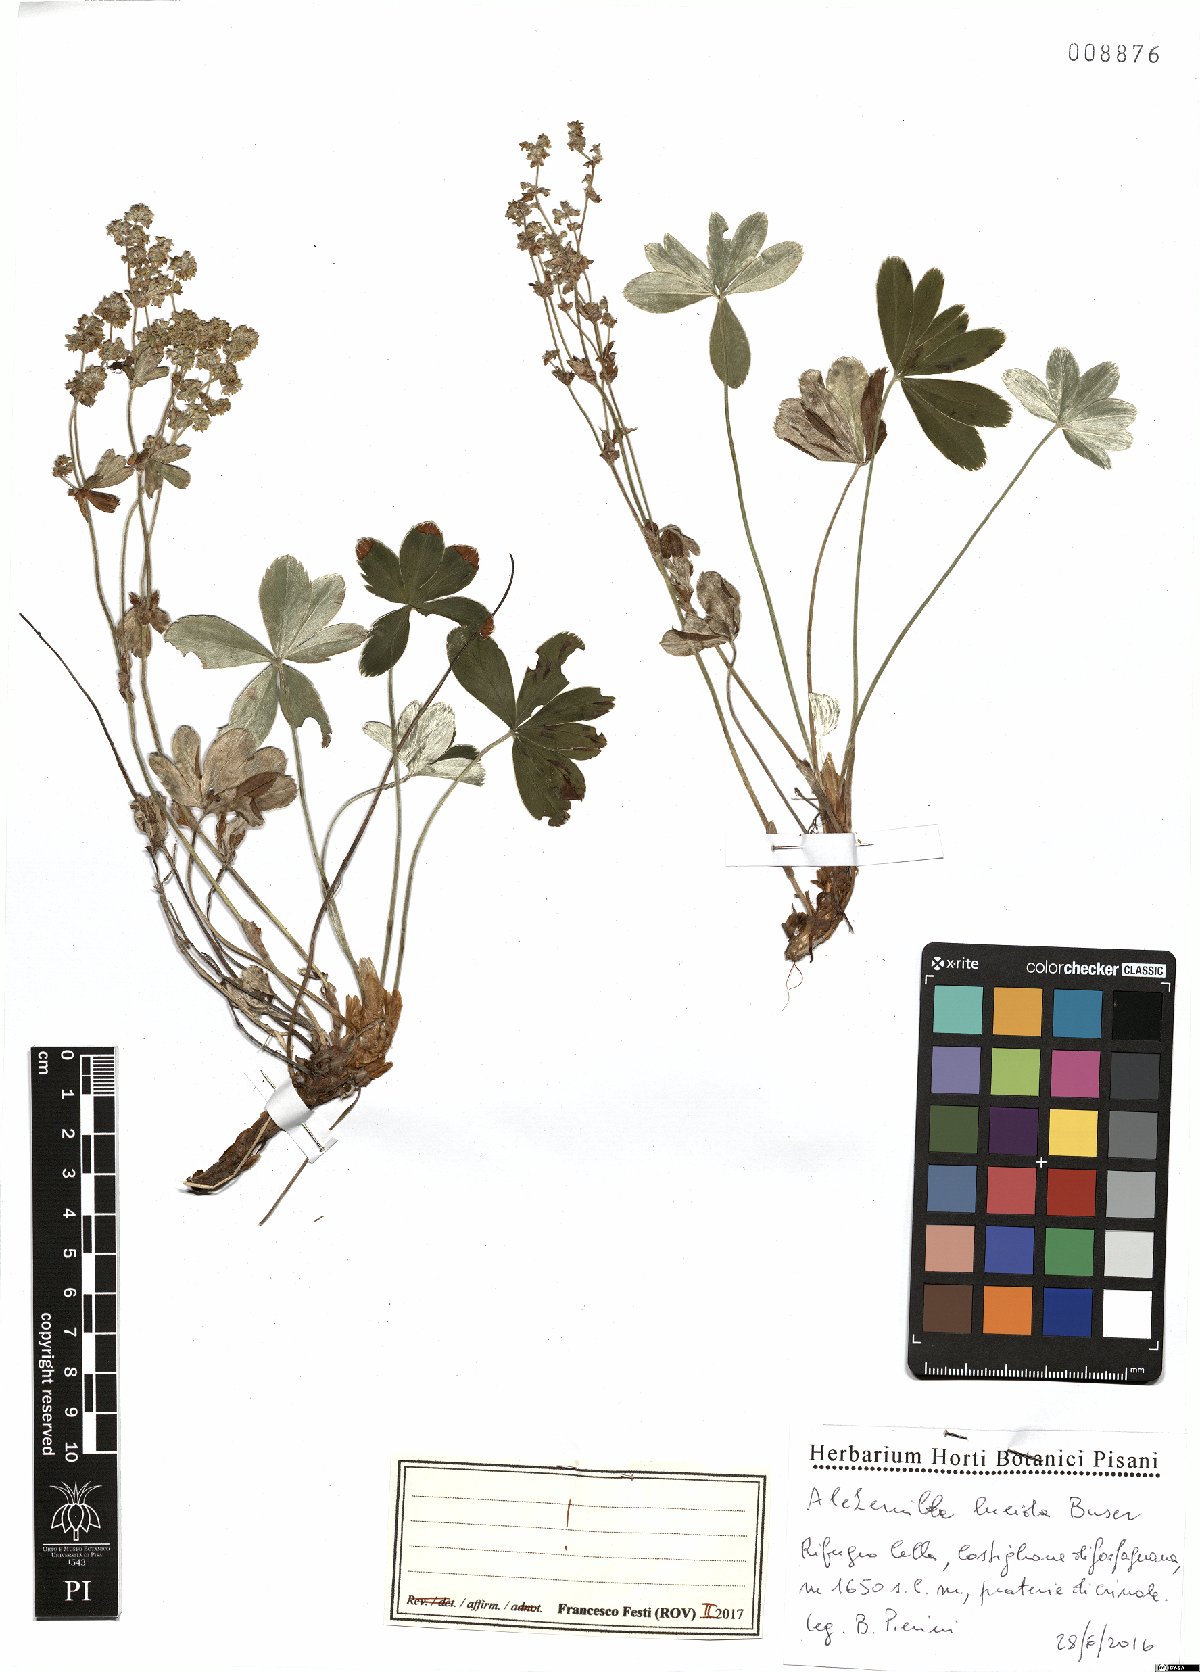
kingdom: Plantae
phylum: Tracheophyta
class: Magnoliopsida
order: Rosales
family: Rosaceae
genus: Alchemilla
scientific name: Alchemilla lucida
